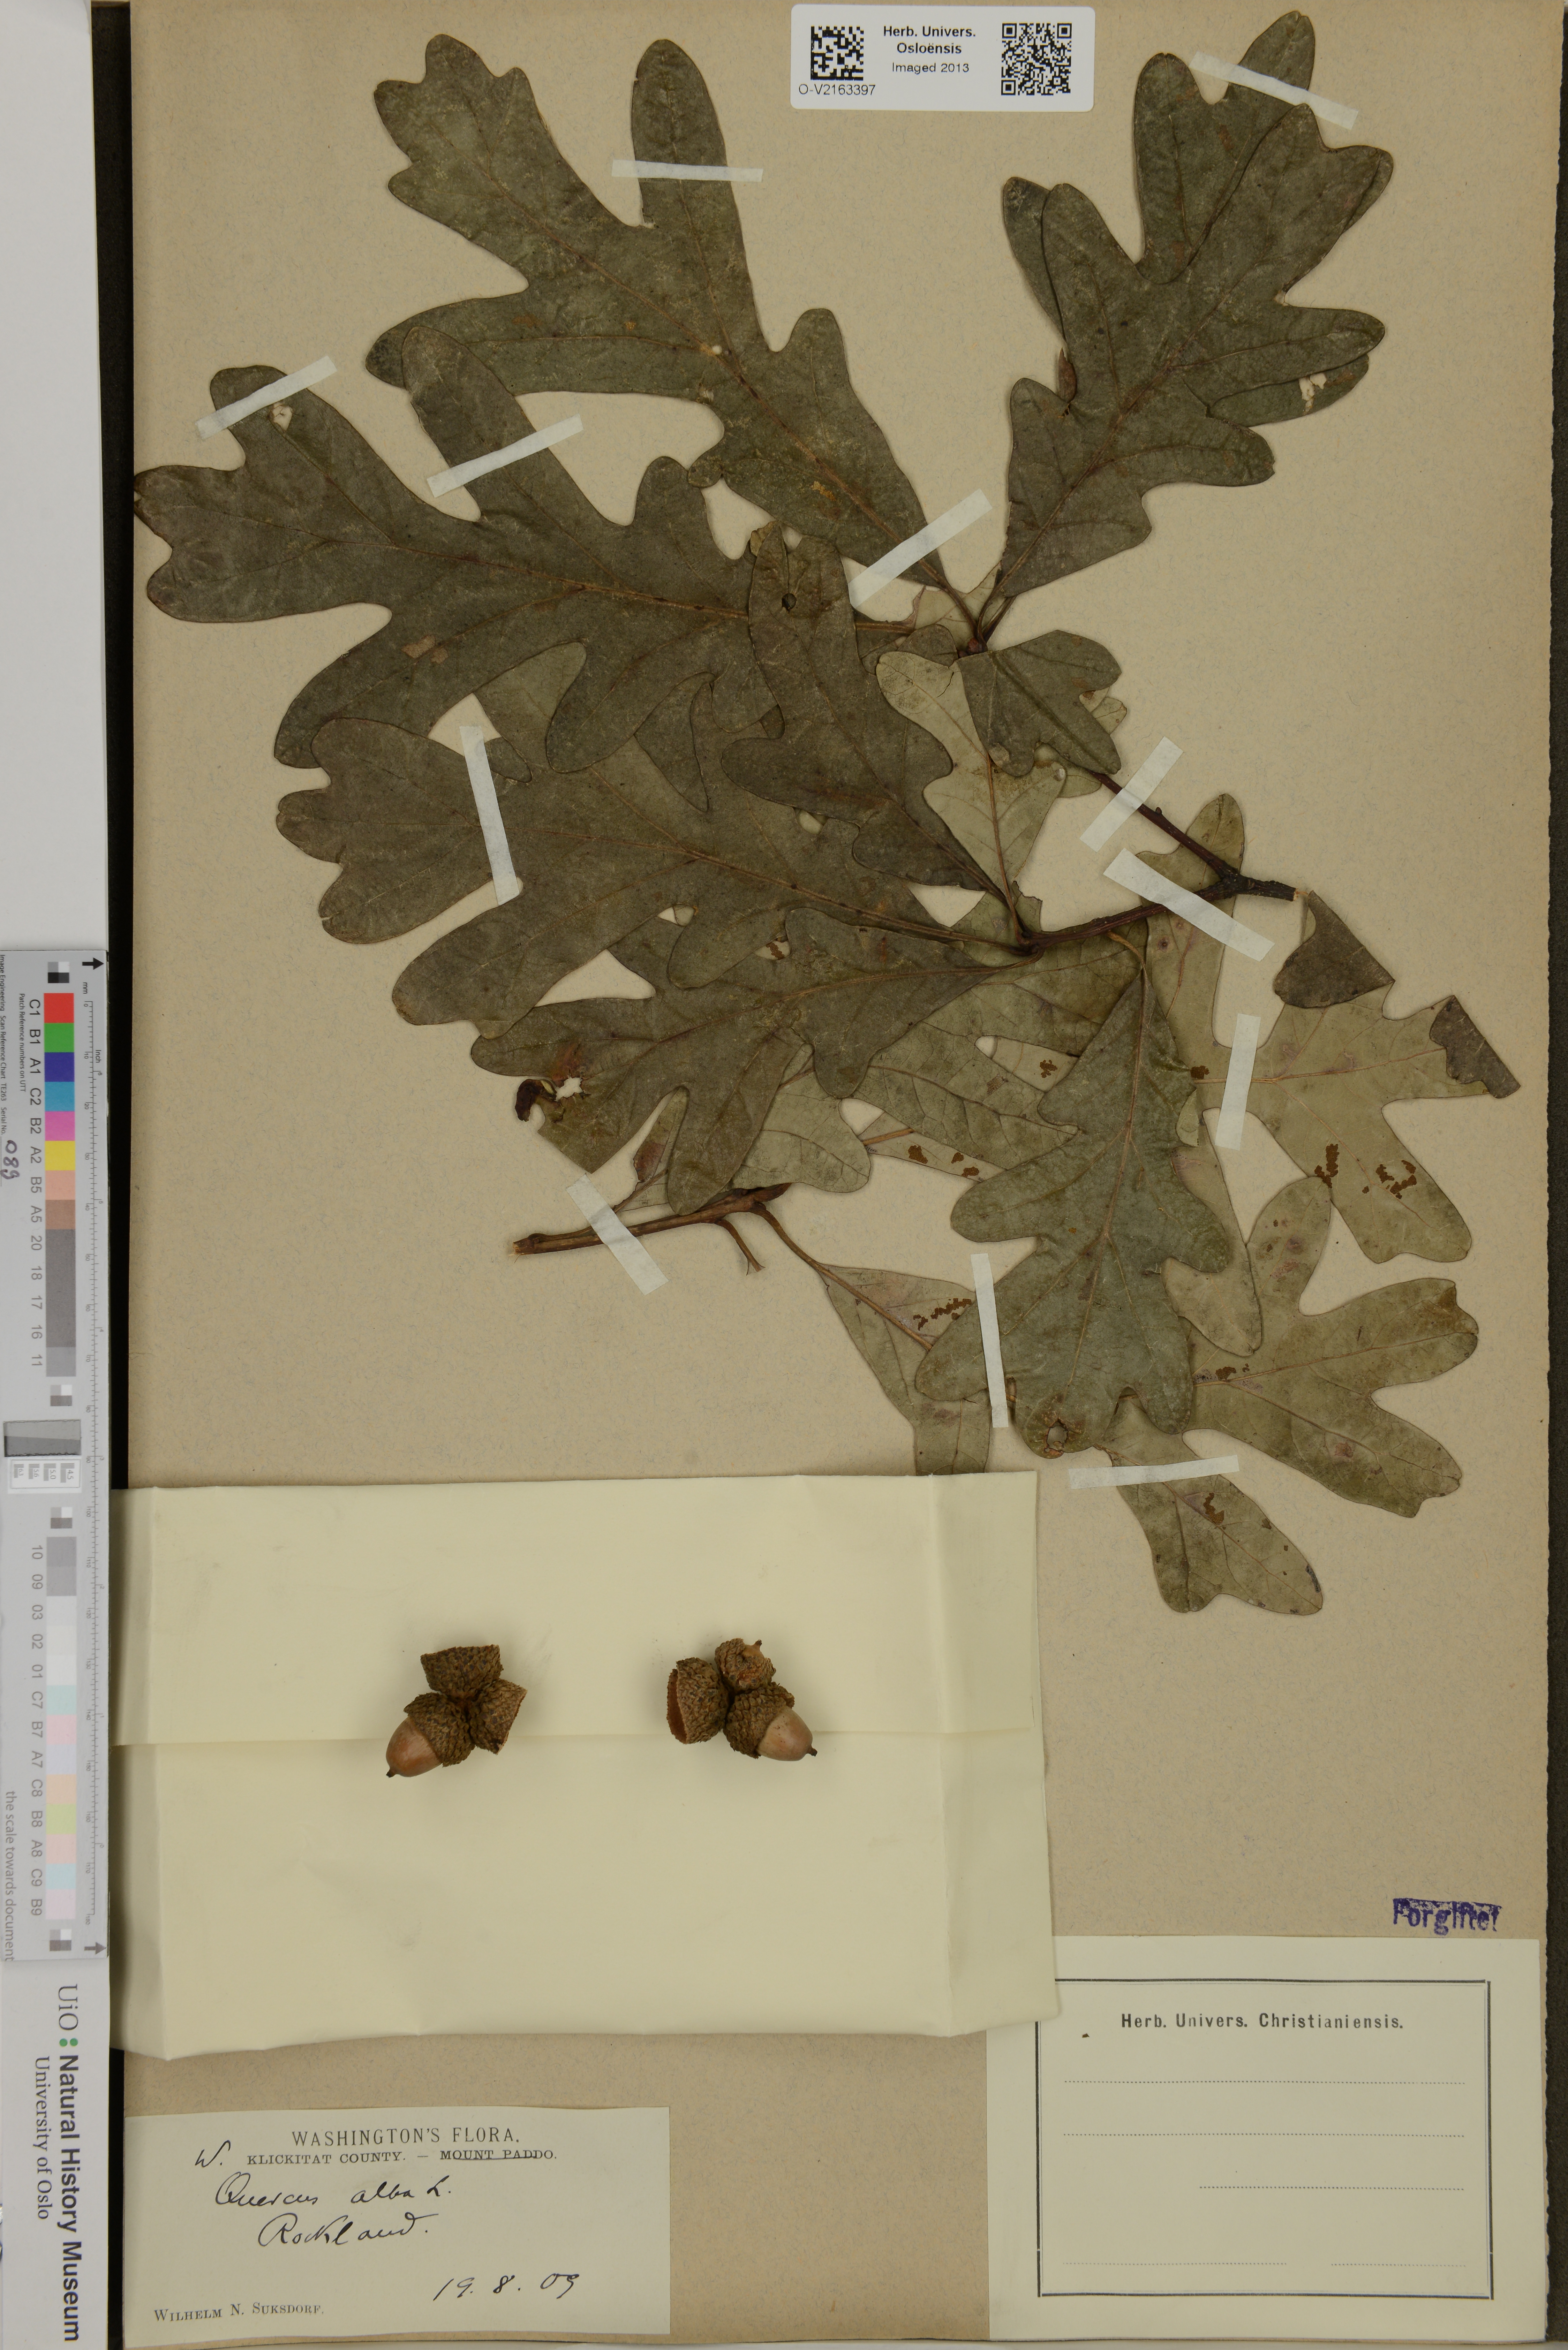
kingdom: Plantae
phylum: Tracheophyta
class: Magnoliopsida
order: Fagales
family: Fagaceae
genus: Quercus
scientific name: Quercus alba
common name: White oak
